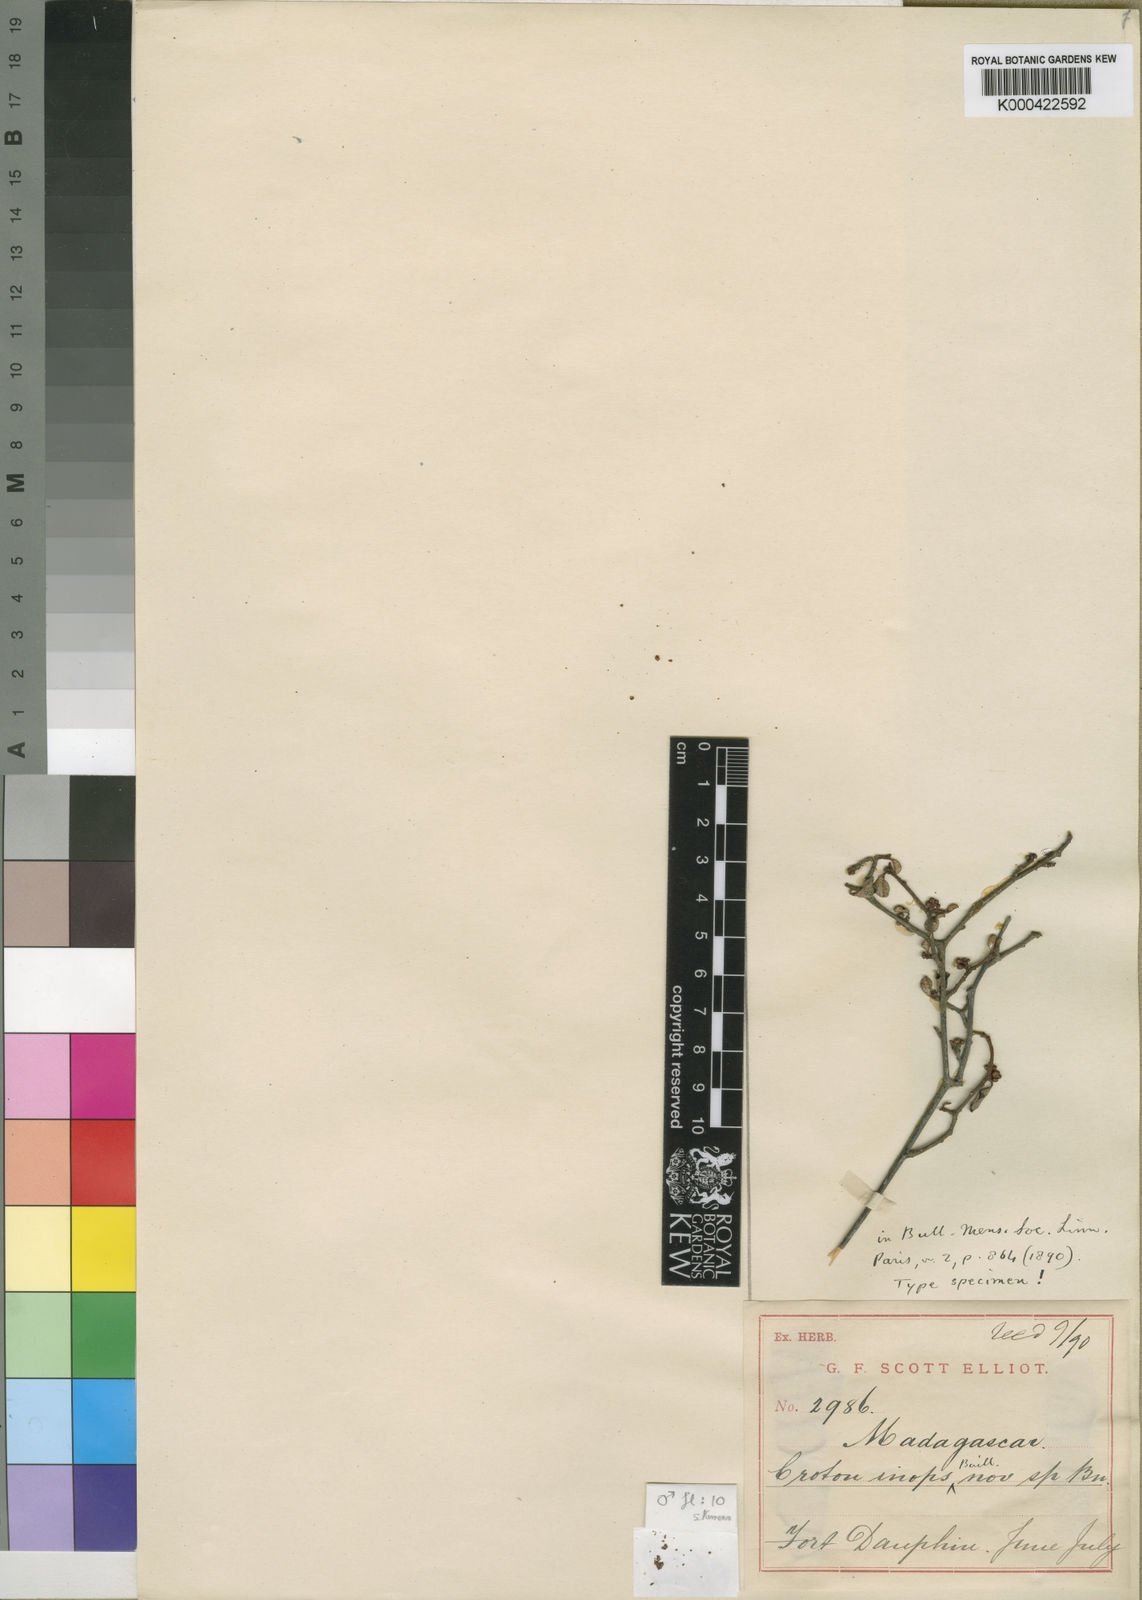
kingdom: Plantae
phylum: Tracheophyta
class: Magnoliopsida
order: Malpighiales
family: Euphorbiaceae
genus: Croton
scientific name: Croton inops
